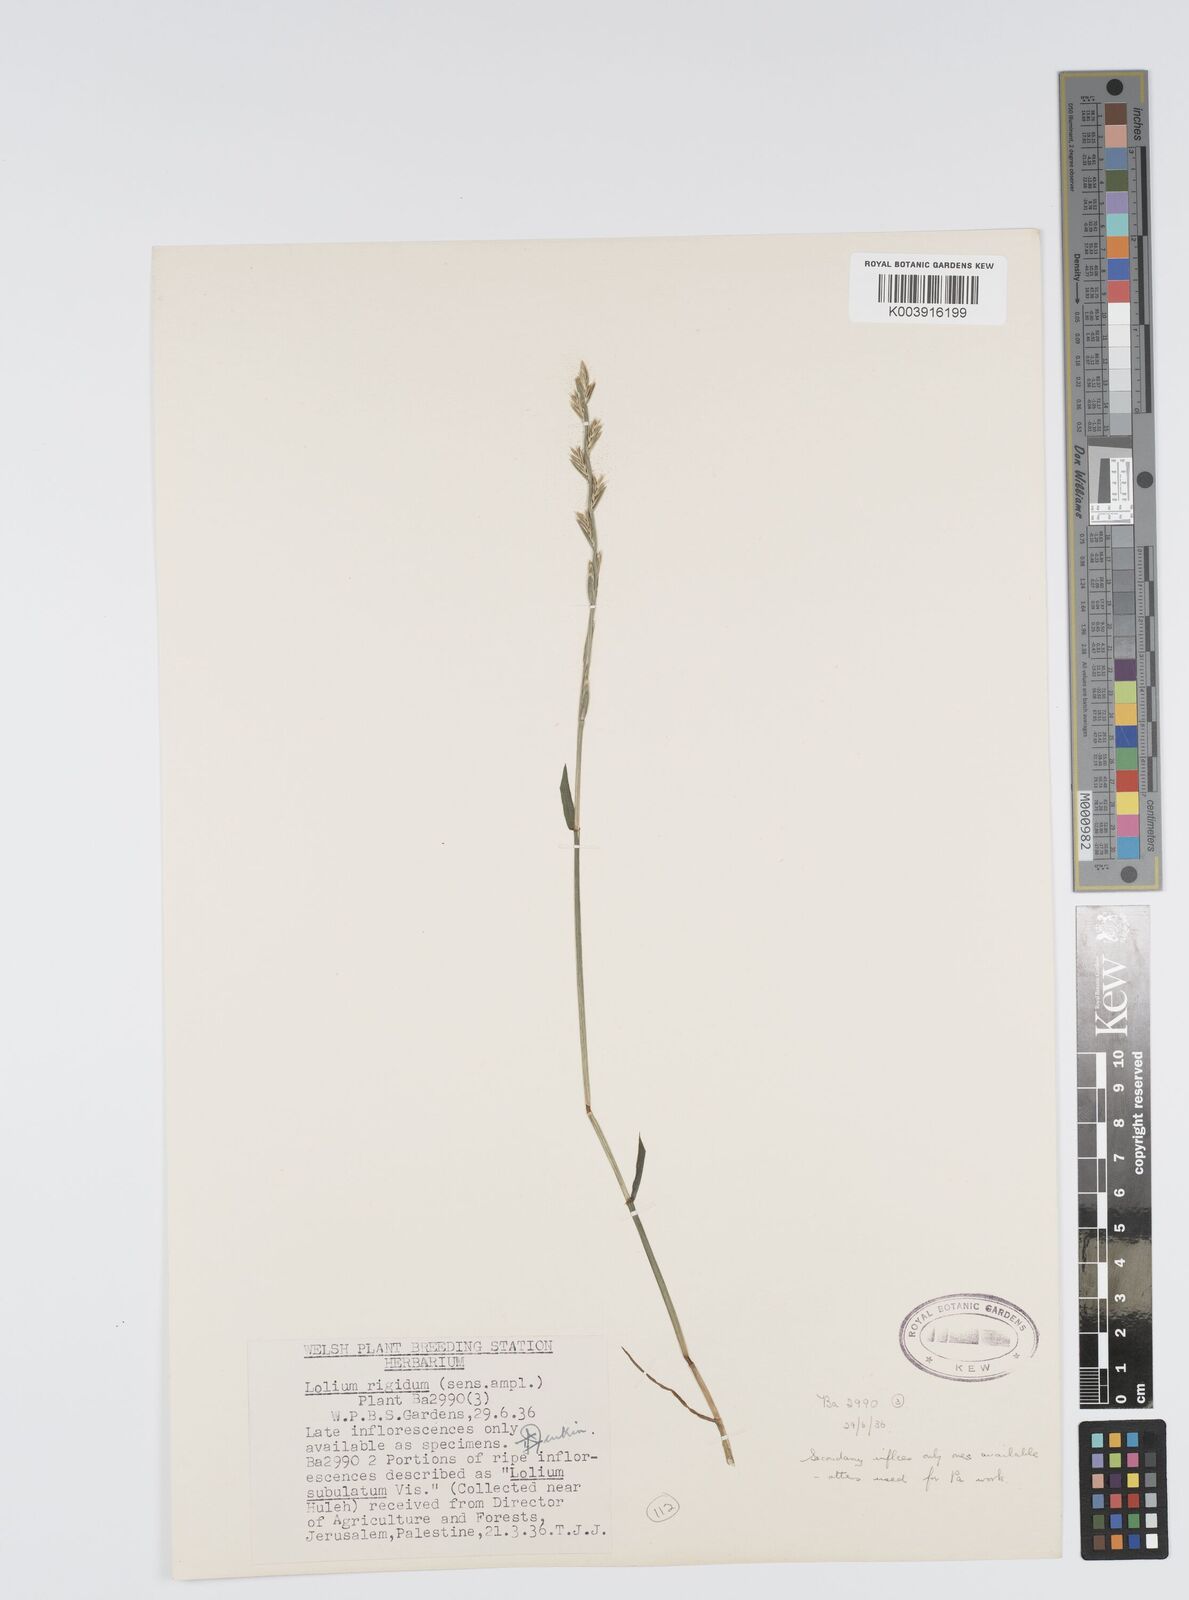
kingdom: Plantae
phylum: Tracheophyta
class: Liliopsida
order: Poales
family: Poaceae
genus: Lolium
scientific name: Lolium rigidum
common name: Wimmera ryegrass
